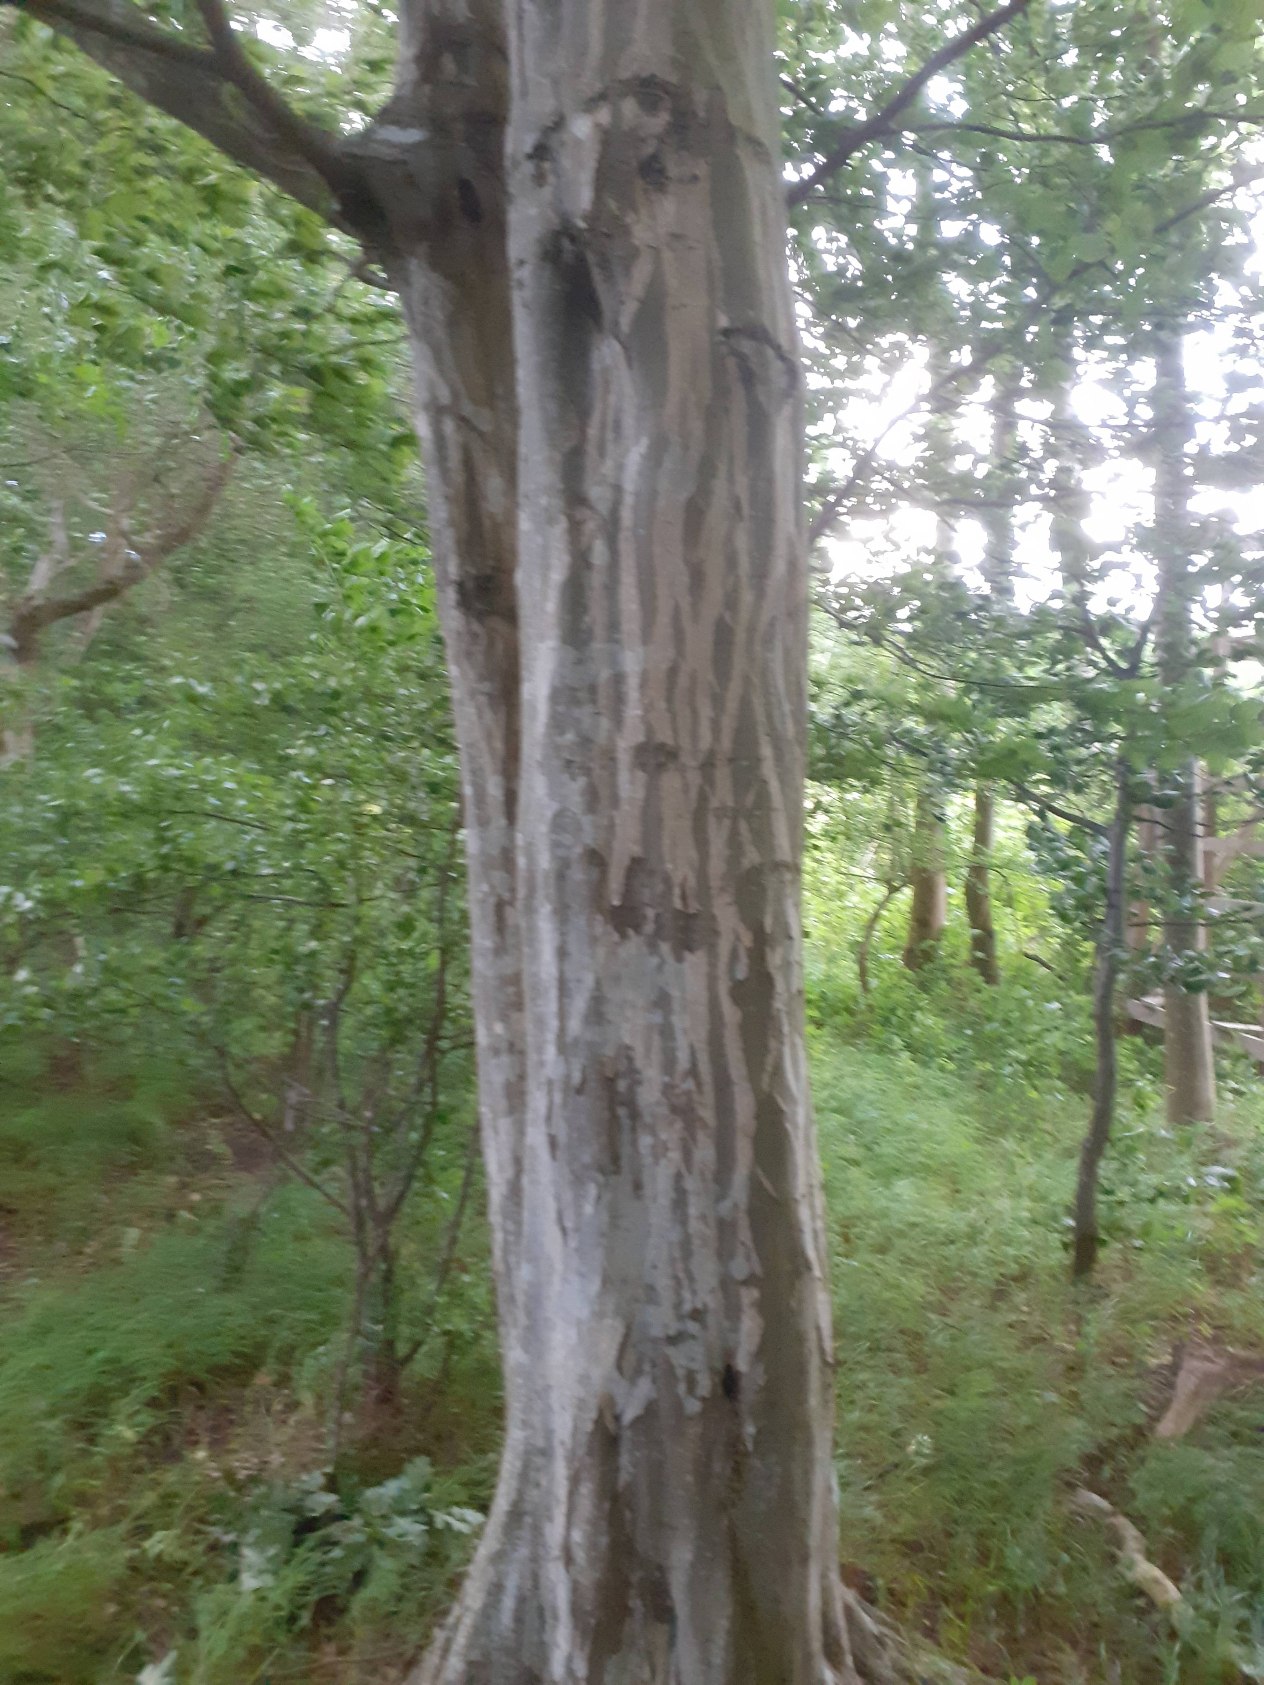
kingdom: Plantae
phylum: Tracheophyta
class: Magnoliopsida
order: Fagales
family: Betulaceae
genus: Carpinus
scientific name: Carpinus betulus
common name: Avnbøg
